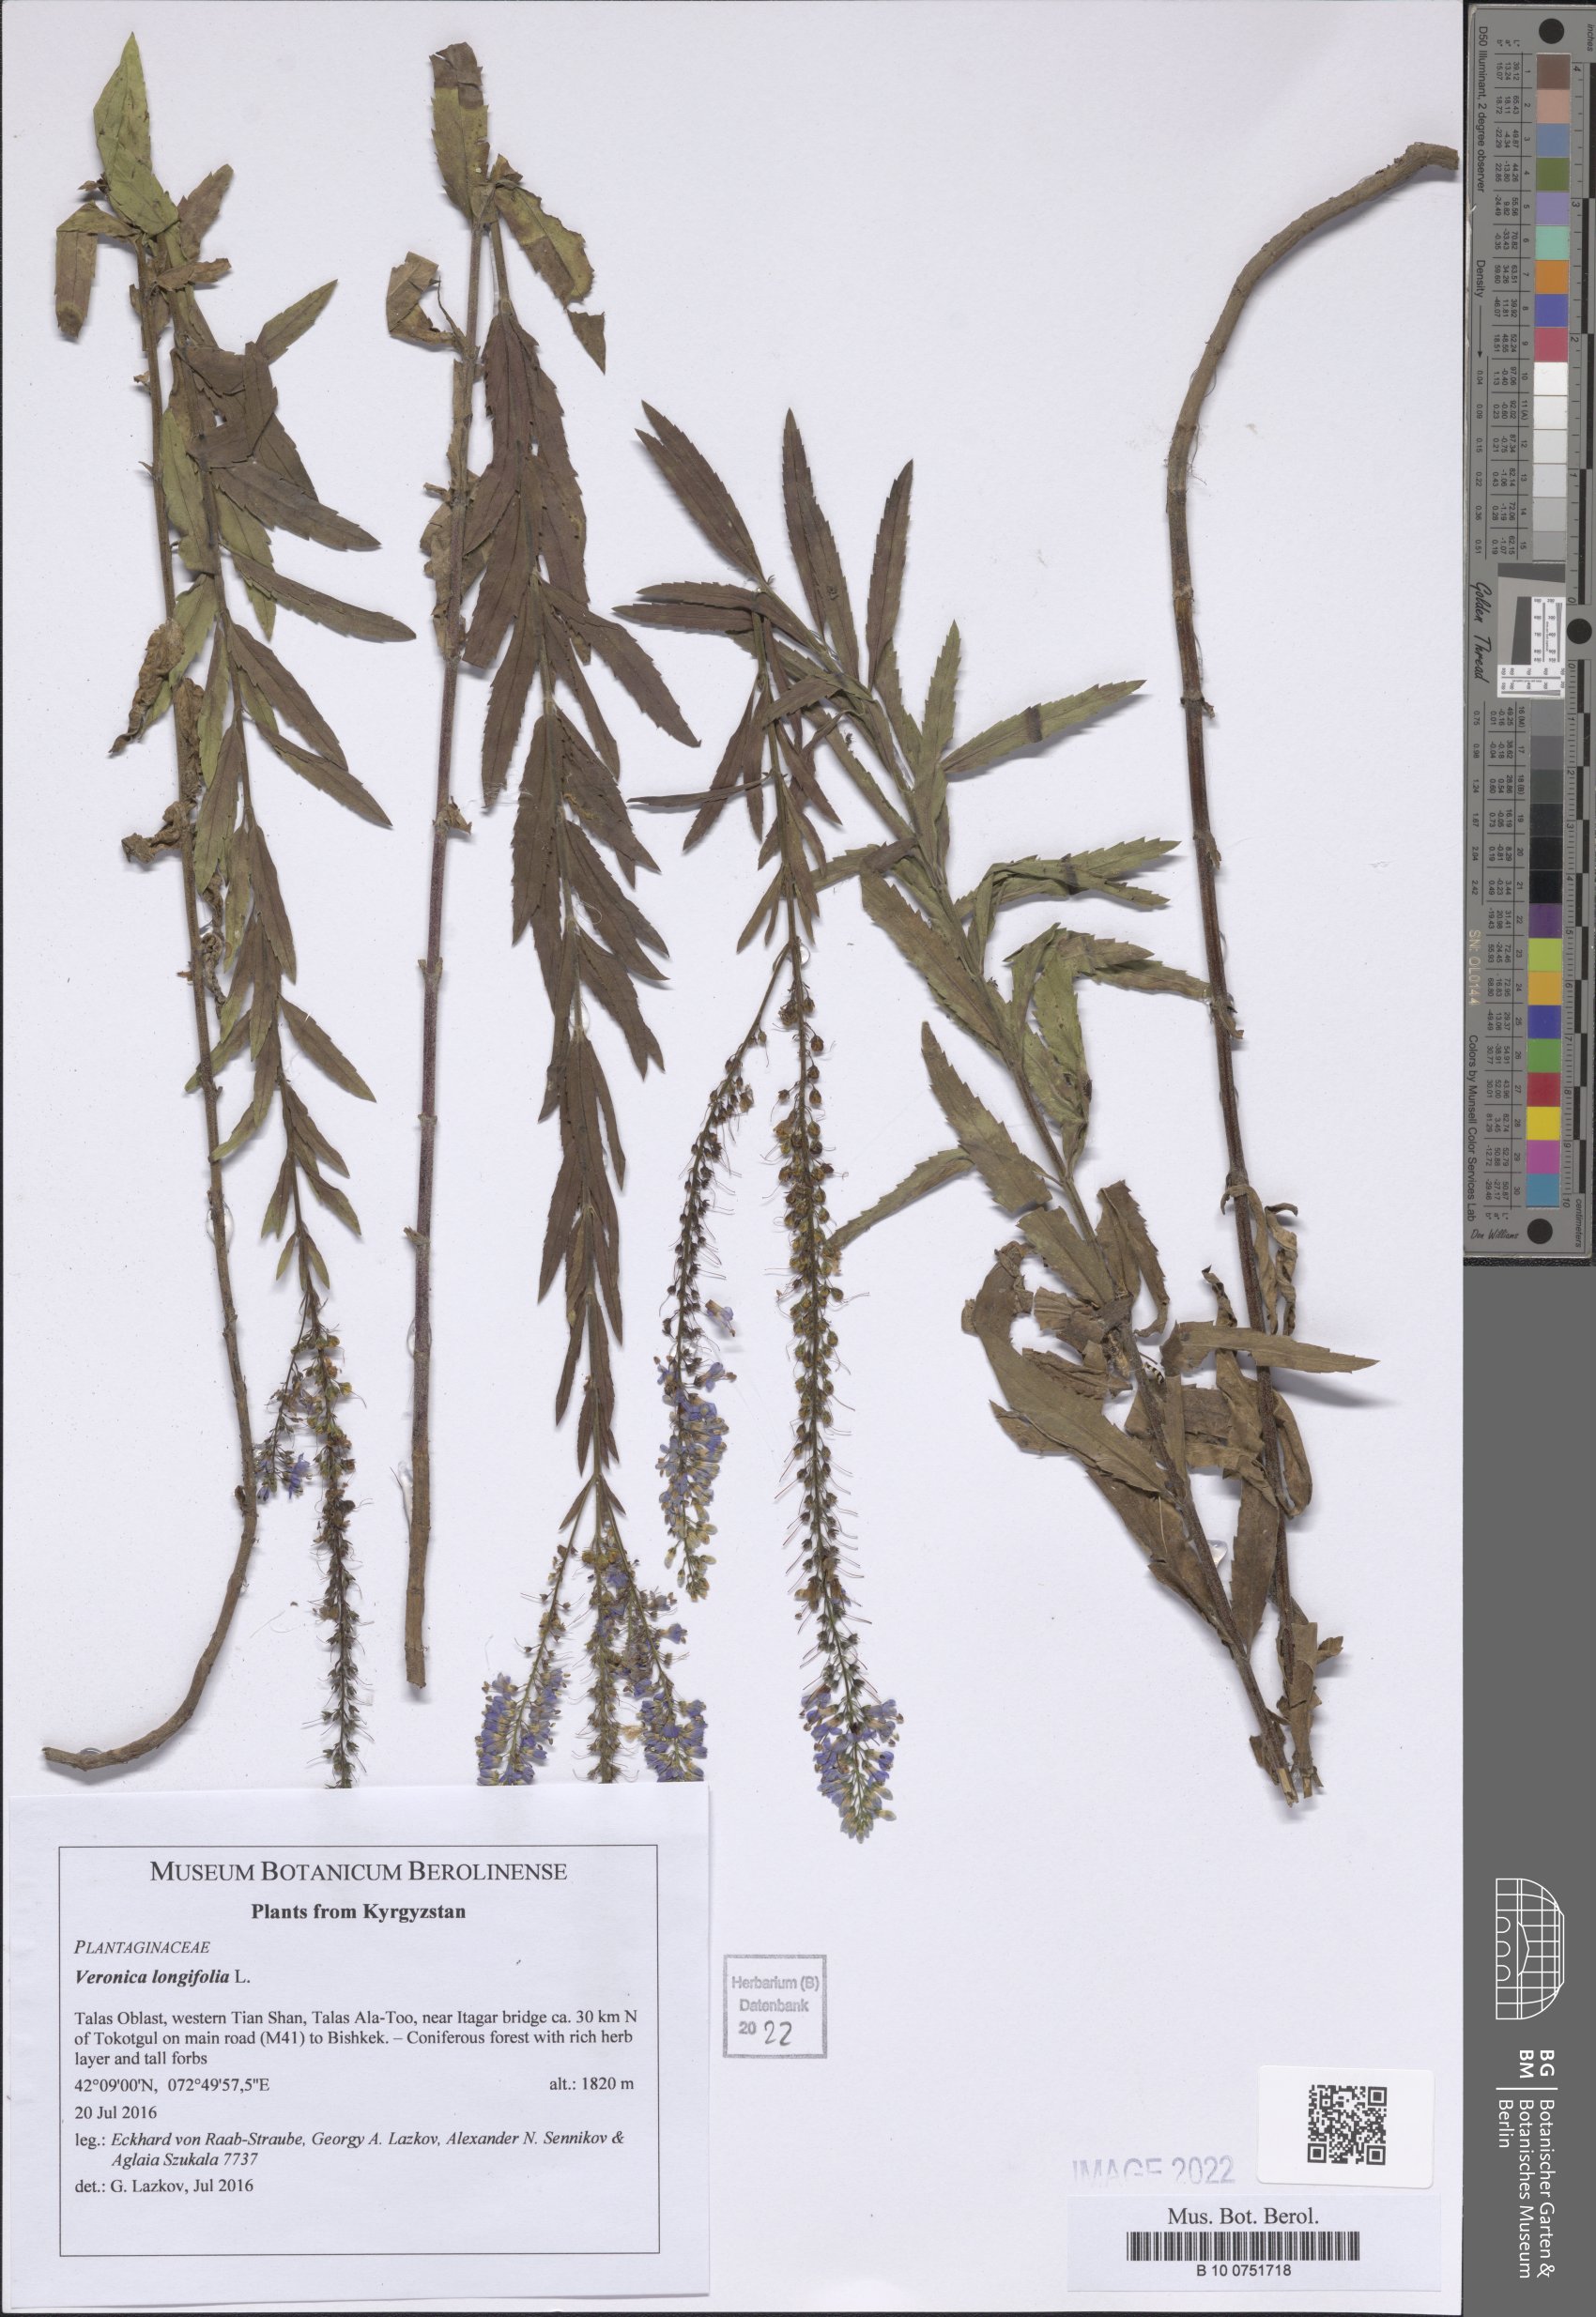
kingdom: Plantae
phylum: Tracheophyta
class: Magnoliopsida
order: Lamiales
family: Plantaginaceae
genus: Veronica
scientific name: Veronica longifolia
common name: Garden speedwell
